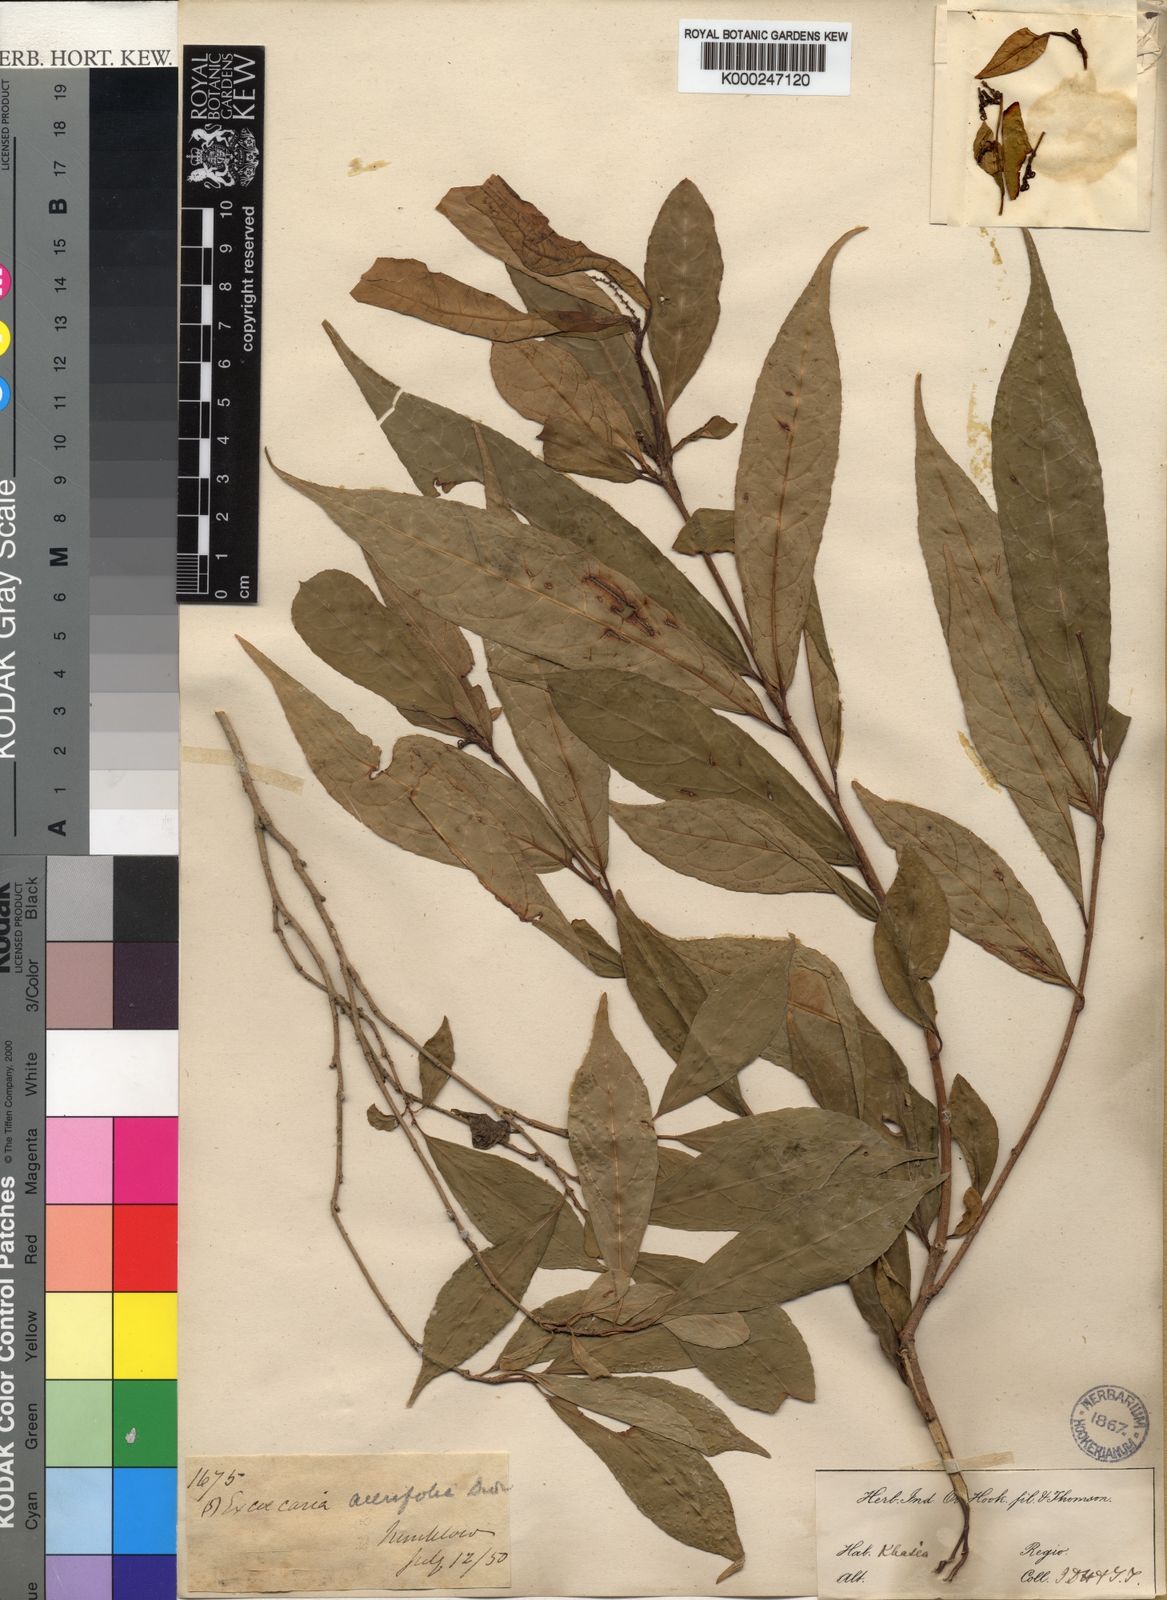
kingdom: Plantae
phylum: Tracheophyta
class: Magnoliopsida
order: Malpighiales
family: Euphorbiaceae
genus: Excoecaria
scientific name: Excoecaria acerifolia
